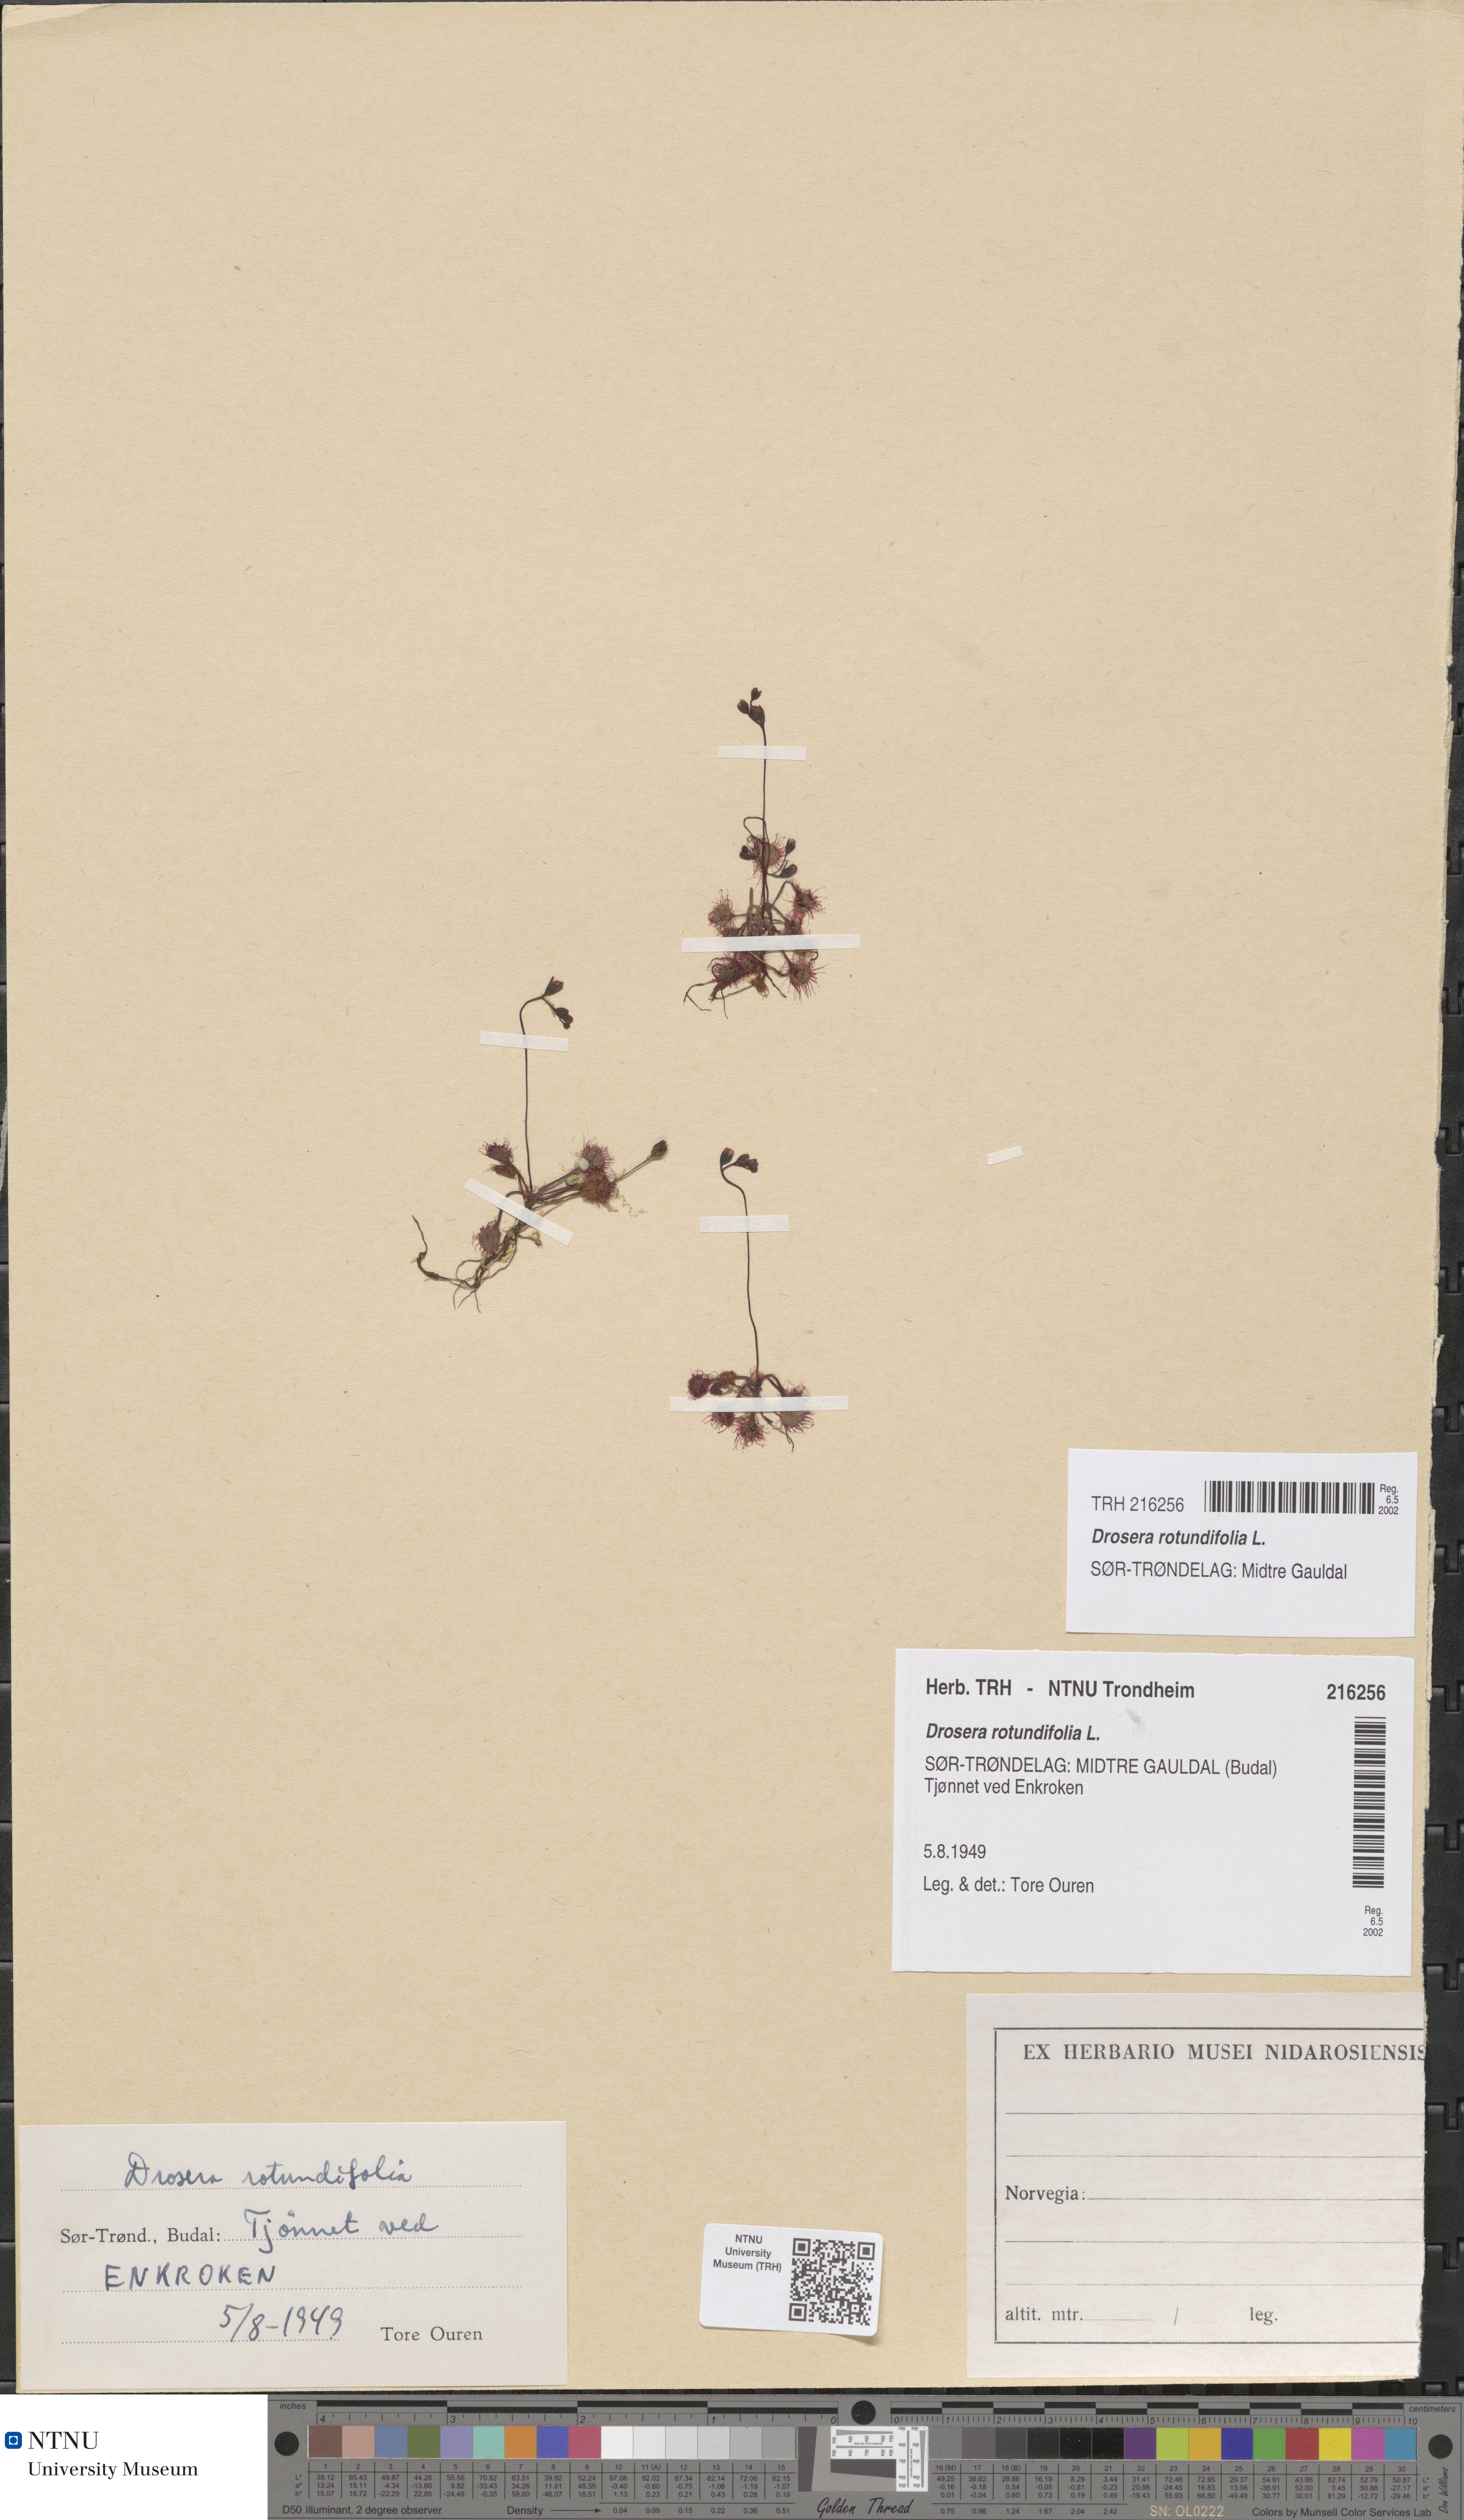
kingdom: Plantae
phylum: Tracheophyta
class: Magnoliopsida
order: Caryophyllales
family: Droseraceae
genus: Drosera
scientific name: Drosera rotundifolia
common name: Round-leaved sundew
